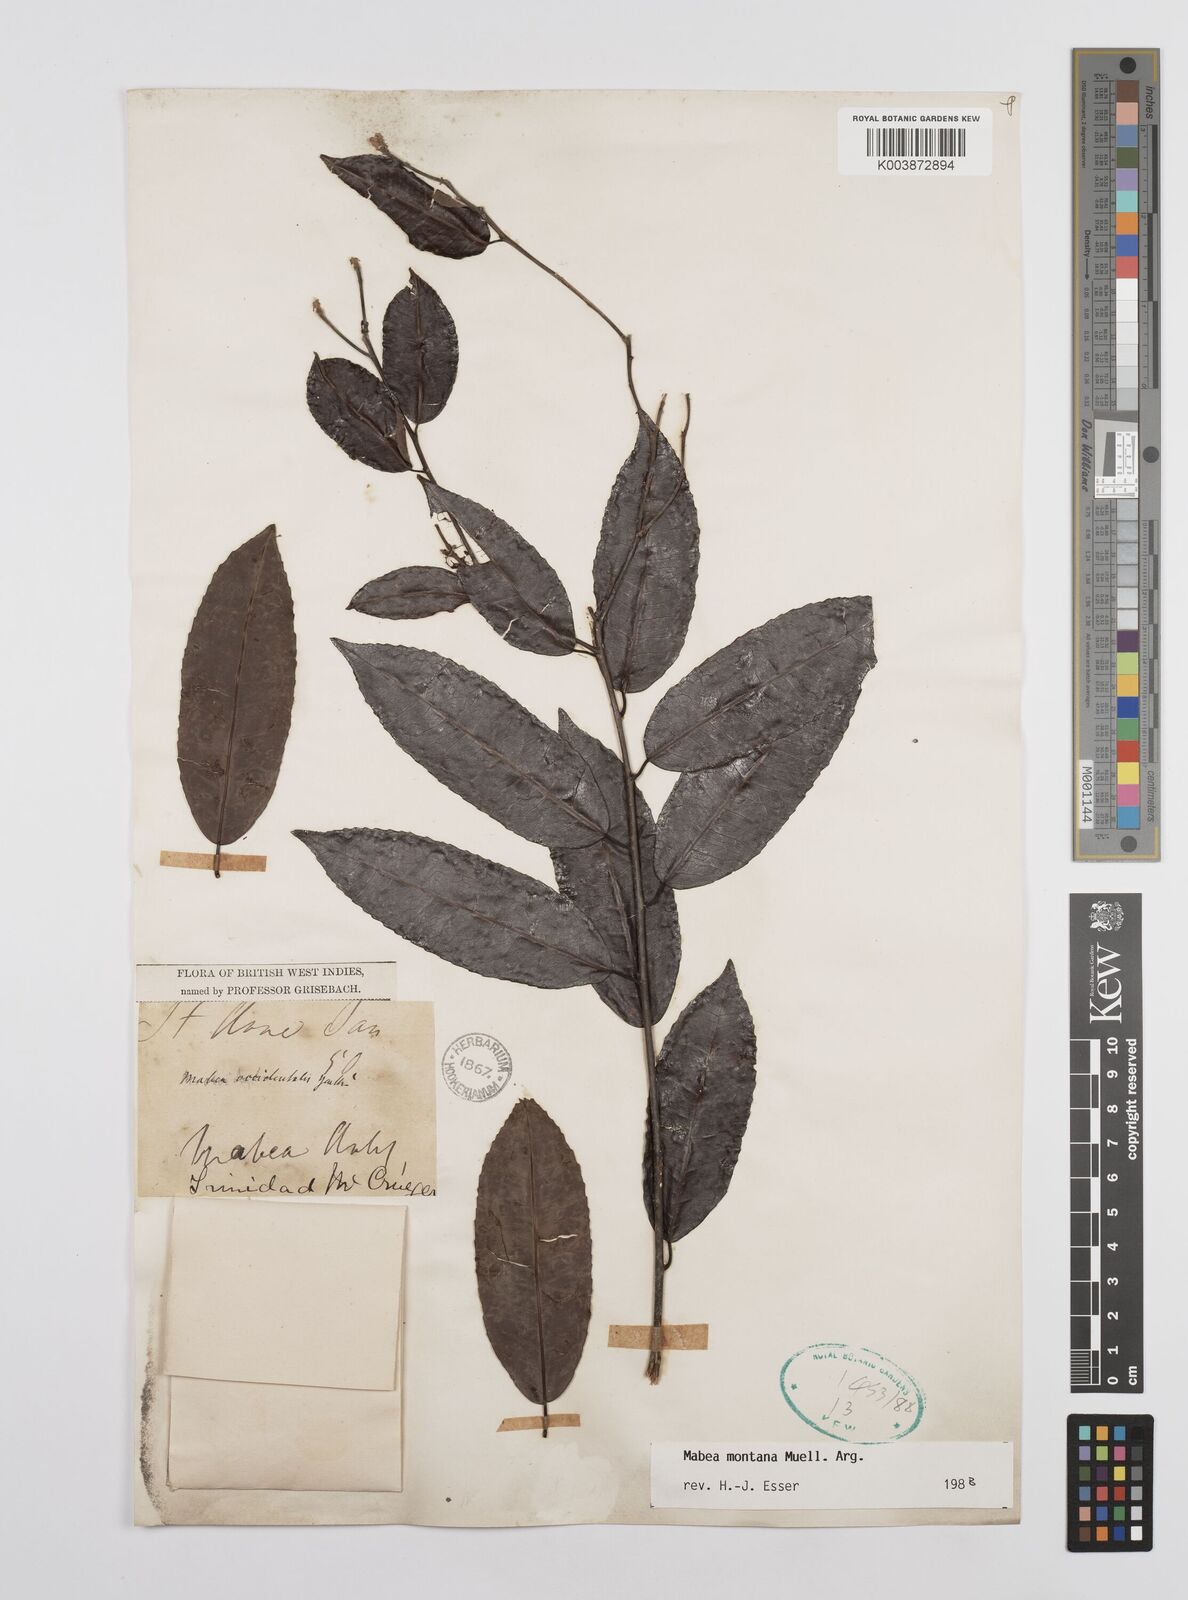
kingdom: Plantae
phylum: Tracheophyta
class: Magnoliopsida
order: Malpighiales
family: Euphorbiaceae
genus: Mabea
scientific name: Mabea montana
